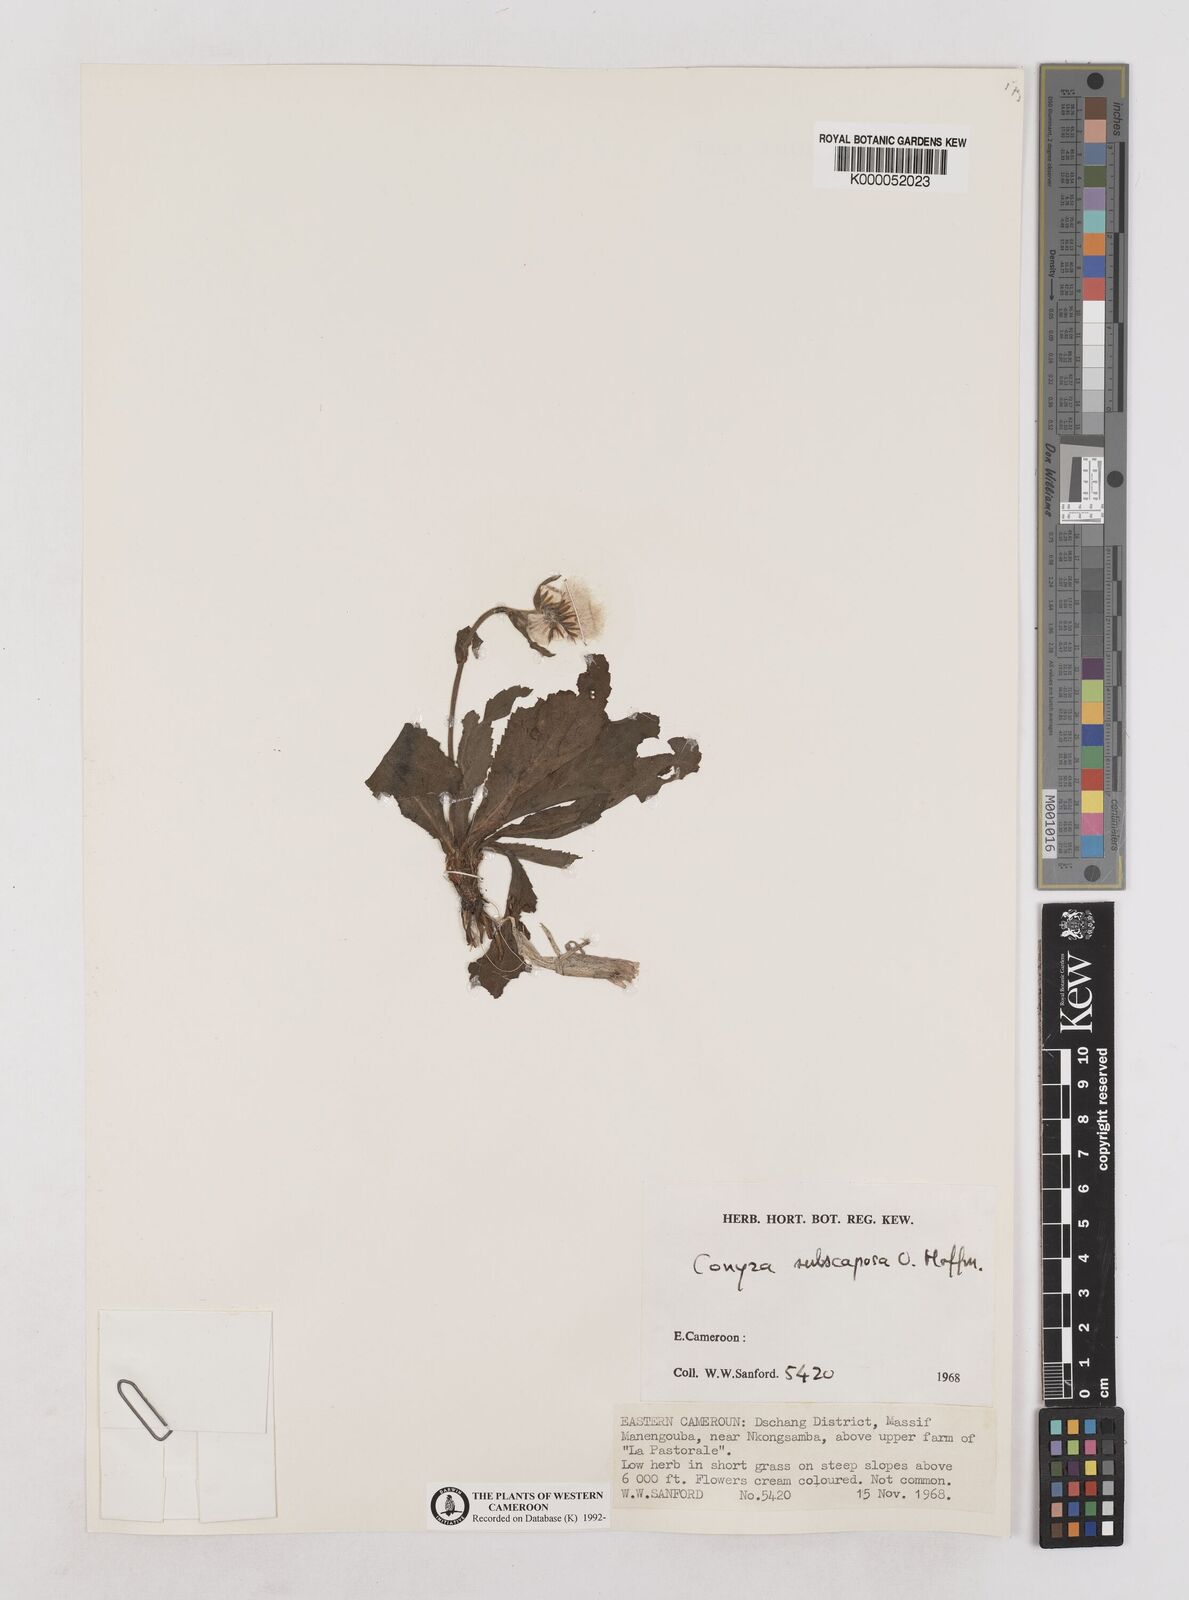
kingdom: Plantae
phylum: Tracheophyta
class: Magnoliopsida
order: Asterales
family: Asteraceae
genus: Eschenbachia
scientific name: Eschenbachia subscaposa
